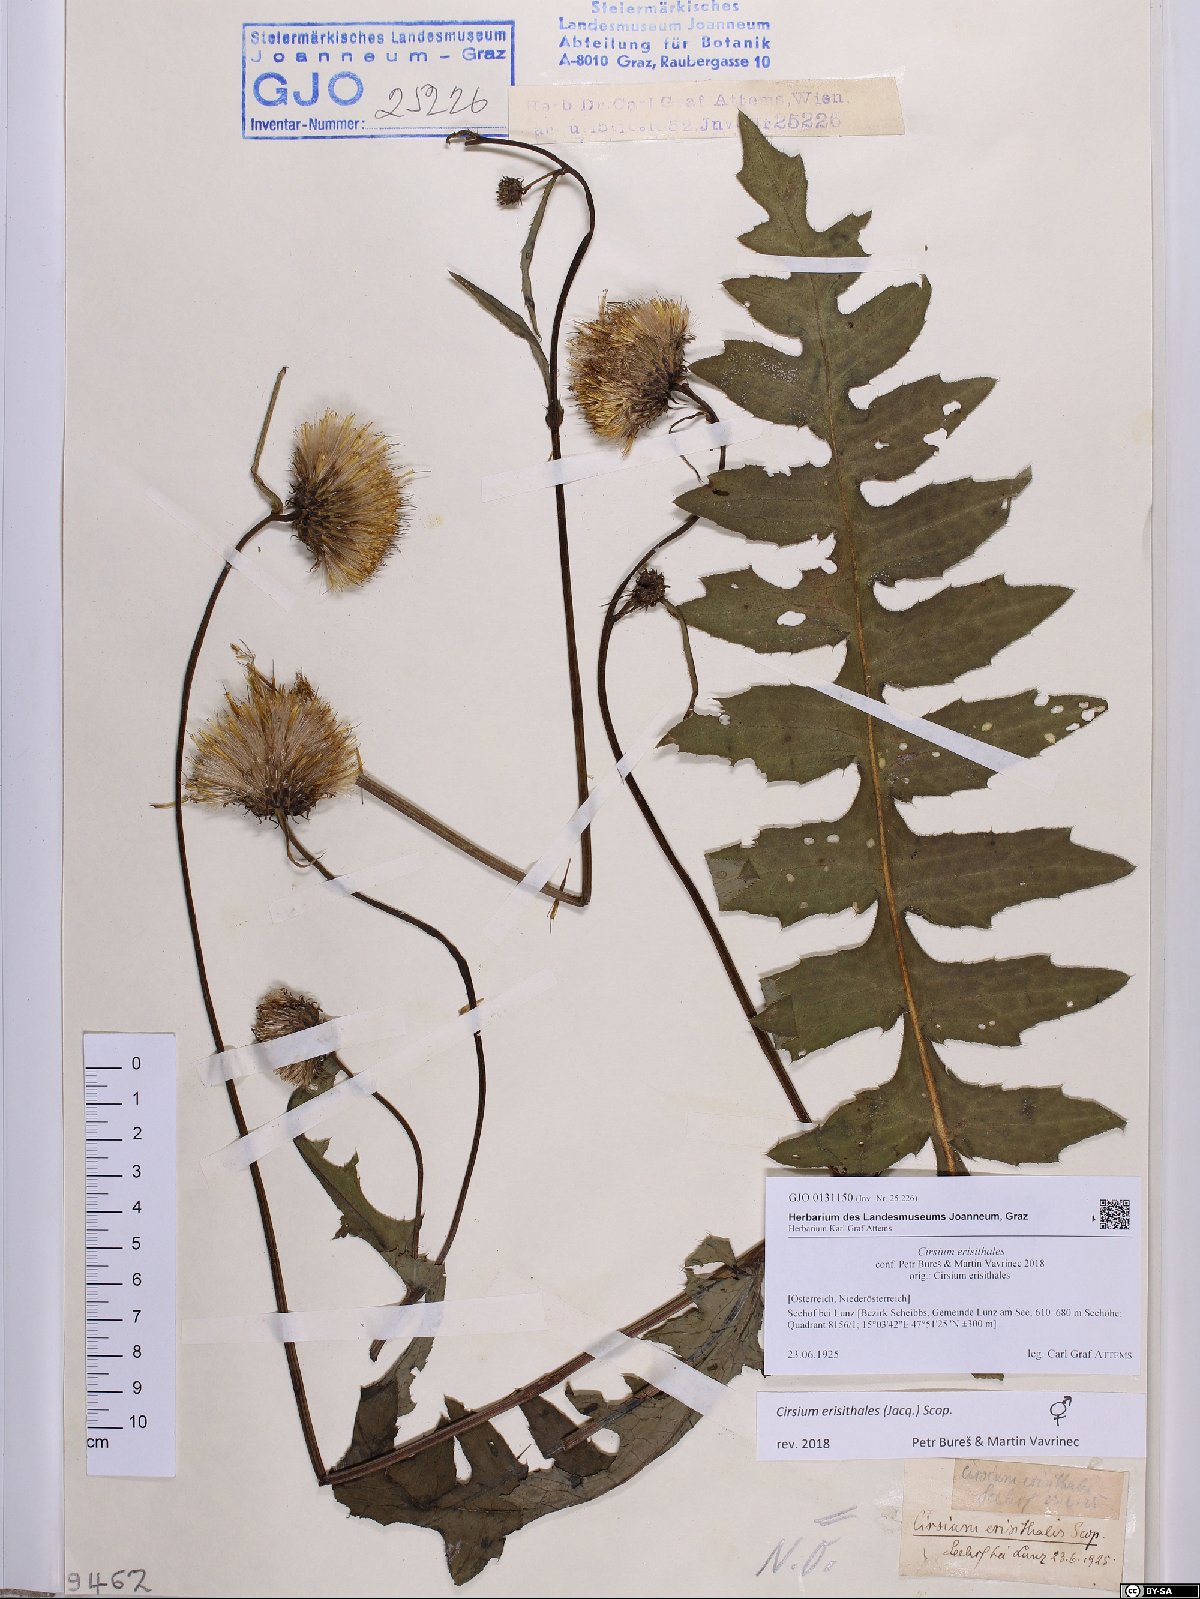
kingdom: Plantae
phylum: Tracheophyta
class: Magnoliopsida
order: Asterales
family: Asteraceae
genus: Cirsium
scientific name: Cirsium erisithales
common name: Yellow thistle
